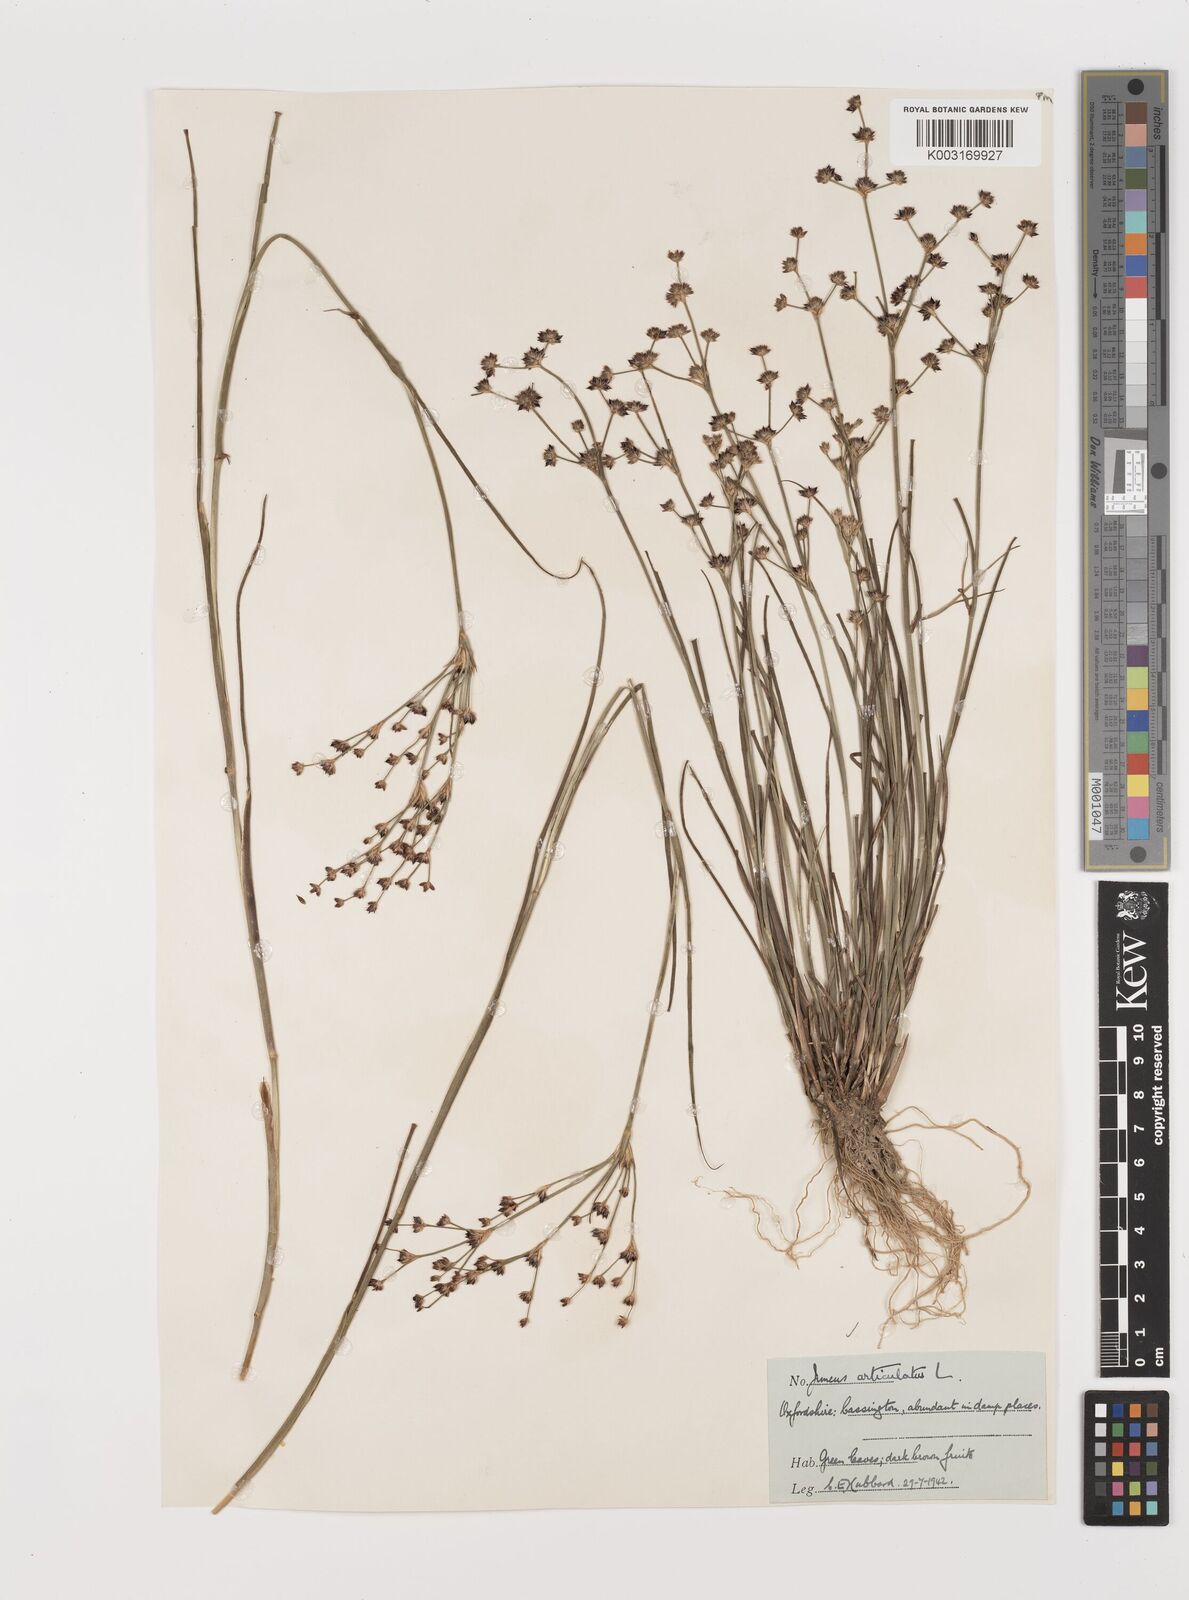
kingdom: Plantae
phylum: Tracheophyta
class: Liliopsida
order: Poales
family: Juncaceae
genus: Juncus
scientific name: Juncus articulatus
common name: Jointed rush
